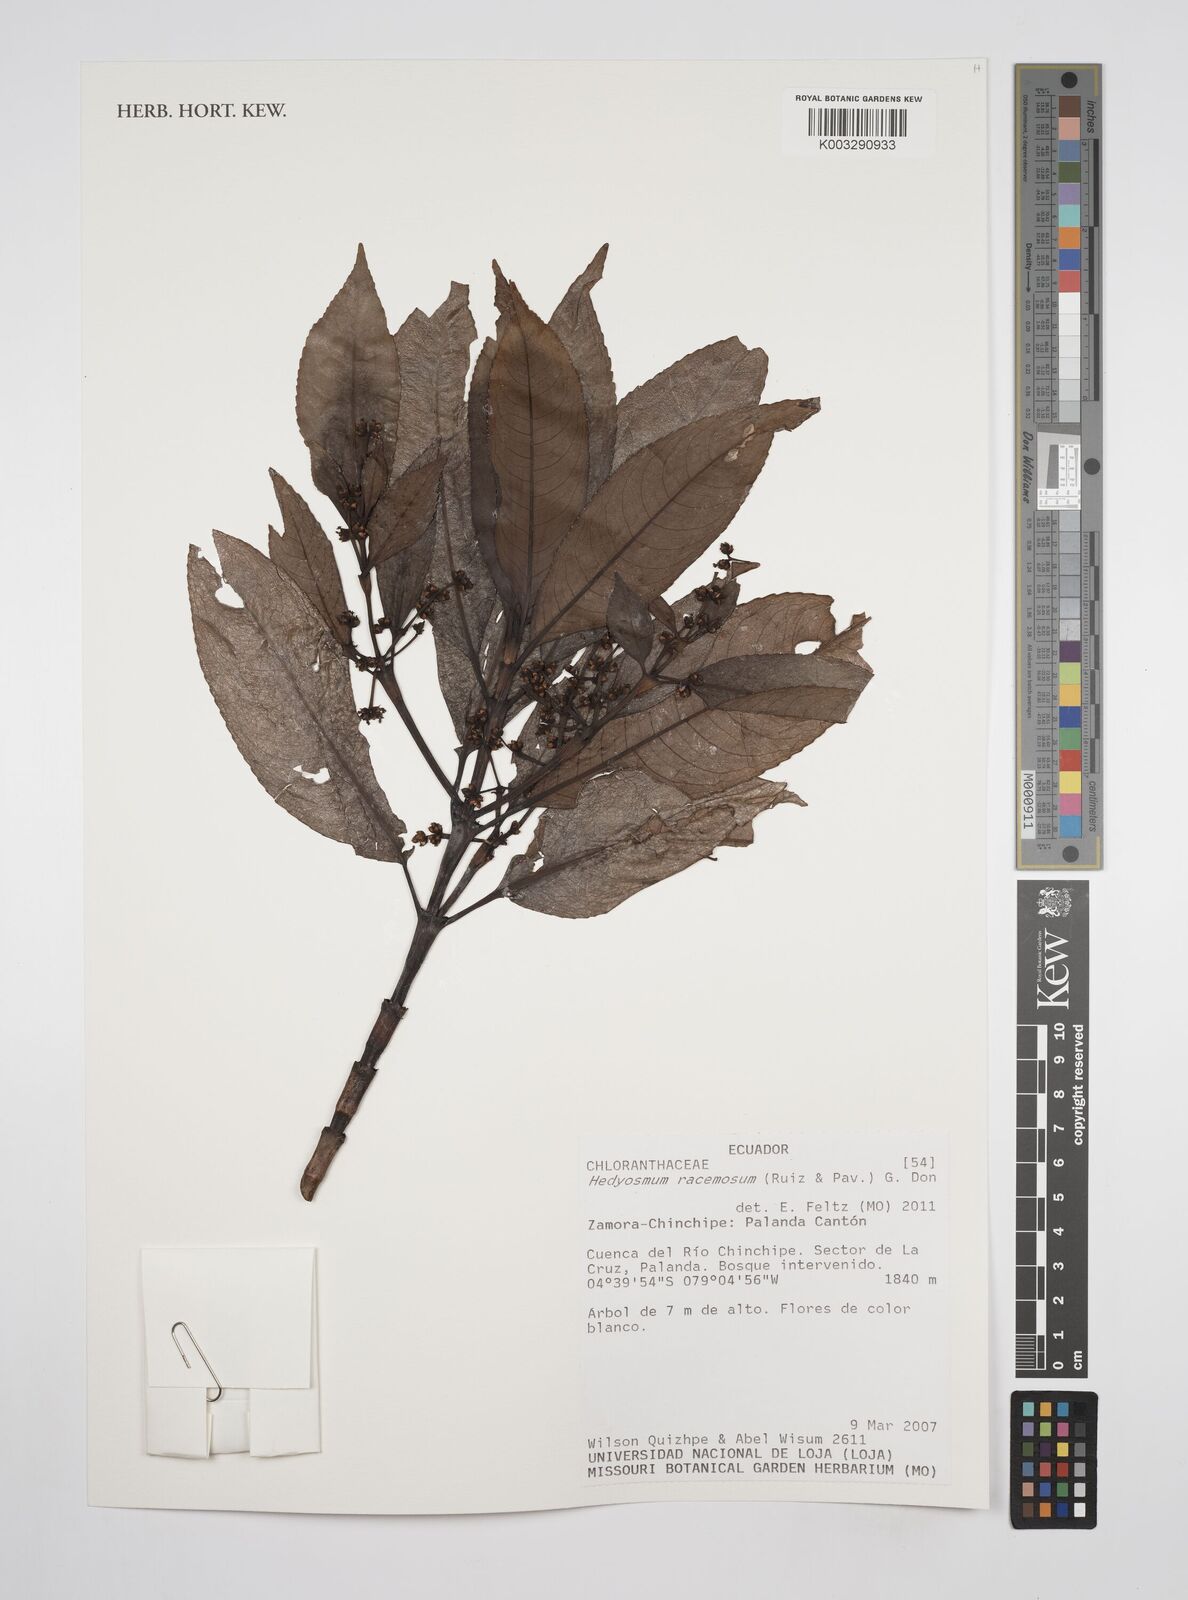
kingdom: Plantae
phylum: Tracheophyta
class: Magnoliopsida
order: Chloranthales
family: Chloranthaceae
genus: Hedyosmum
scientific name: Hedyosmum racemosum
